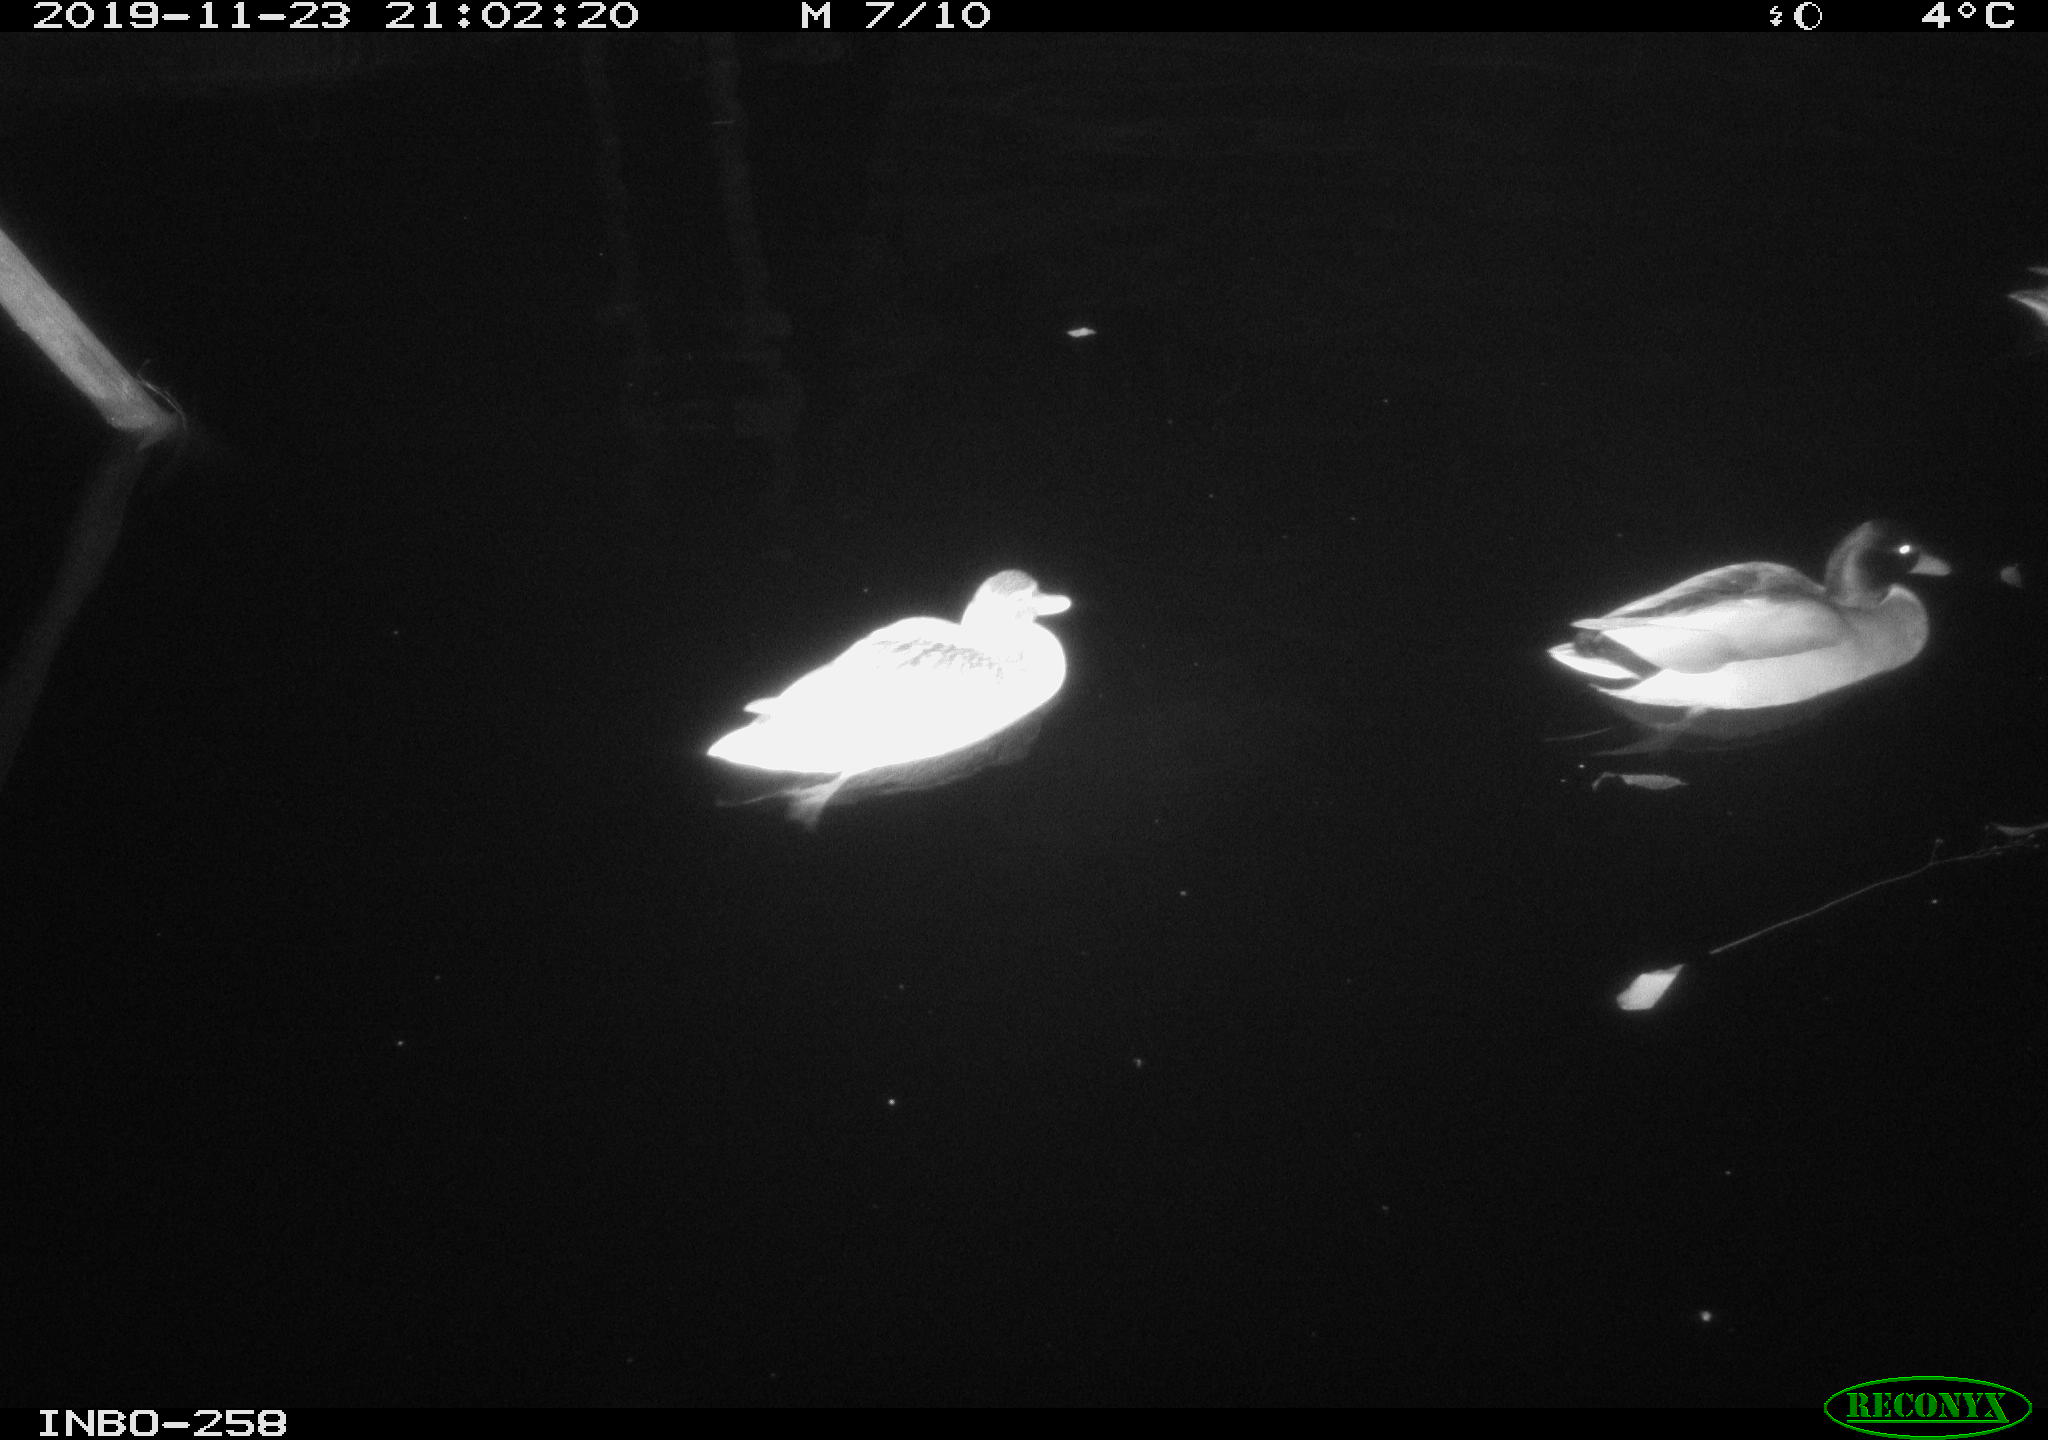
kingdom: Animalia
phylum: Chordata
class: Aves
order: Anseriformes
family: Anatidae
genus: Anas
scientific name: Anas platyrhynchos
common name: Mallard
